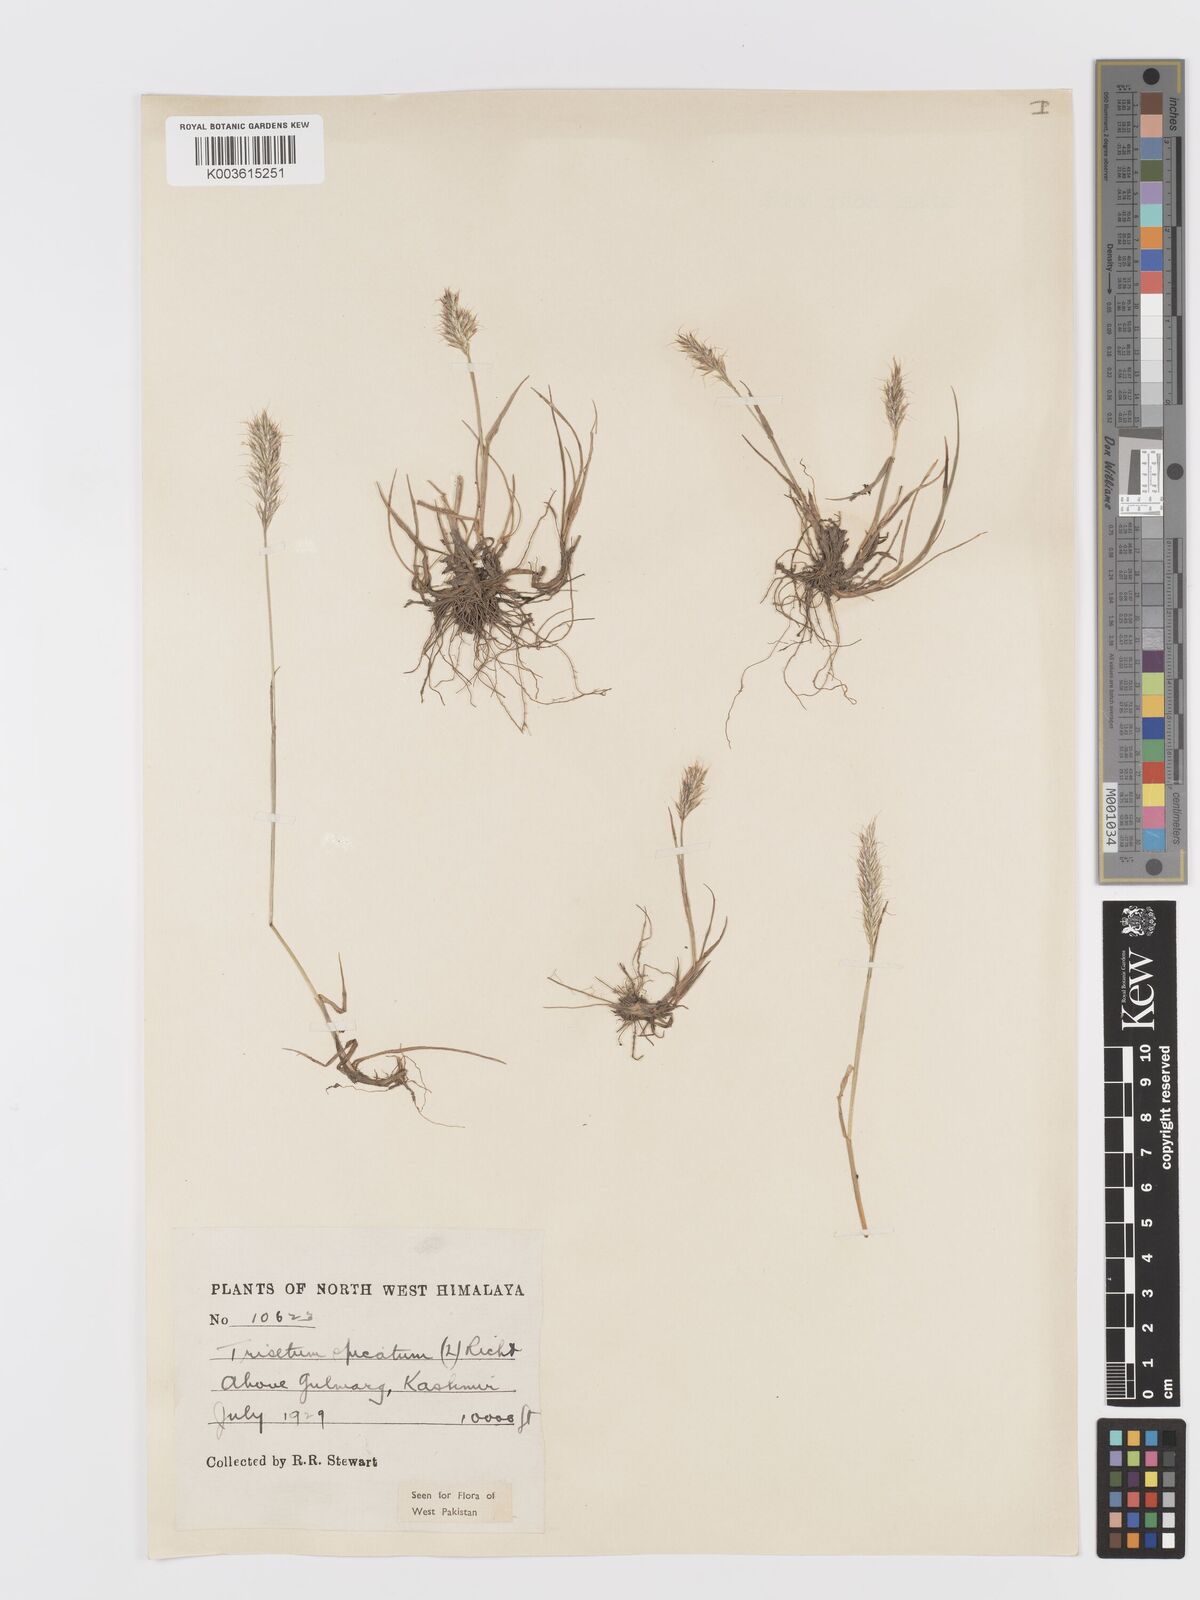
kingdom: Plantae
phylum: Tracheophyta
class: Liliopsida
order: Poales
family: Poaceae
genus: Koeleria
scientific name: Koeleria spicata
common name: Mountain trisetum
